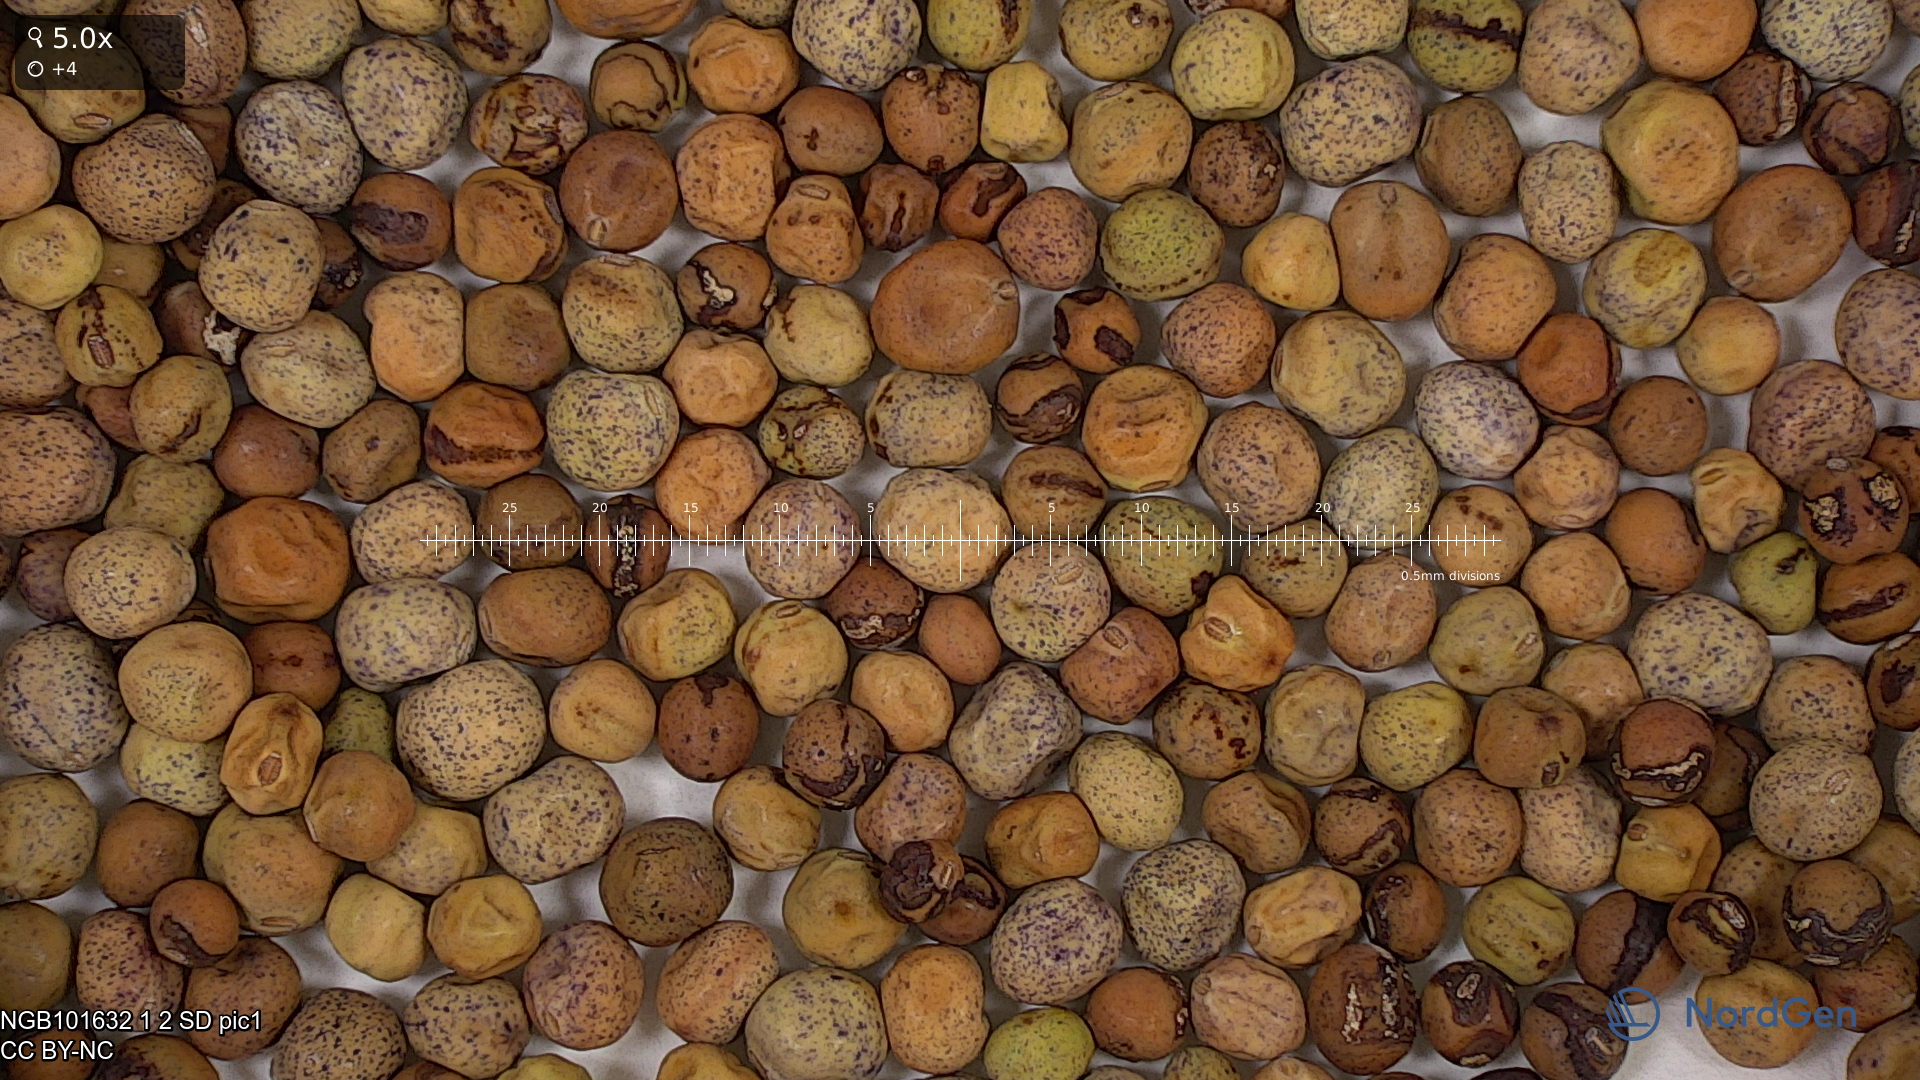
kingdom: Plantae
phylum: Tracheophyta
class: Magnoliopsida
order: Fabales
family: Fabaceae
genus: Lathyrus
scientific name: Lathyrus oleraceus
